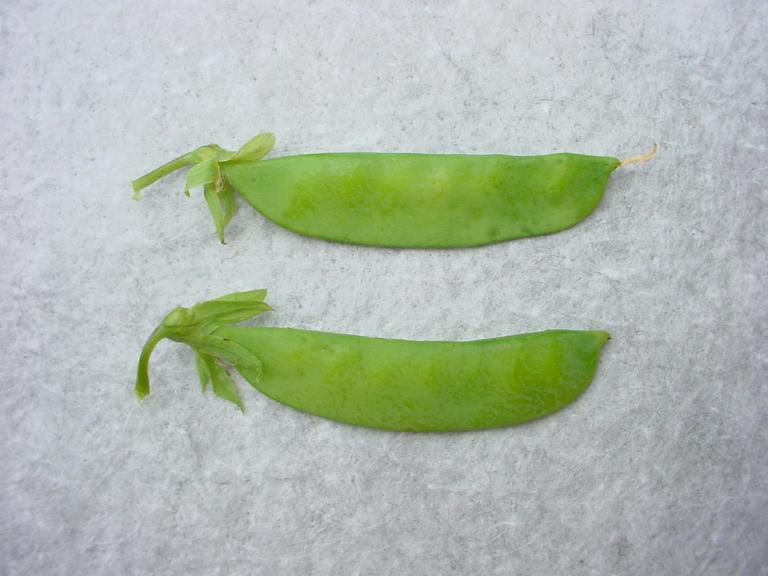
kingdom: Plantae
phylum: Tracheophyta
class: Magnoliopsida
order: Fabales
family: Fabaceae
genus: Lathyrus
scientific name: Lathyrus oleraceus
